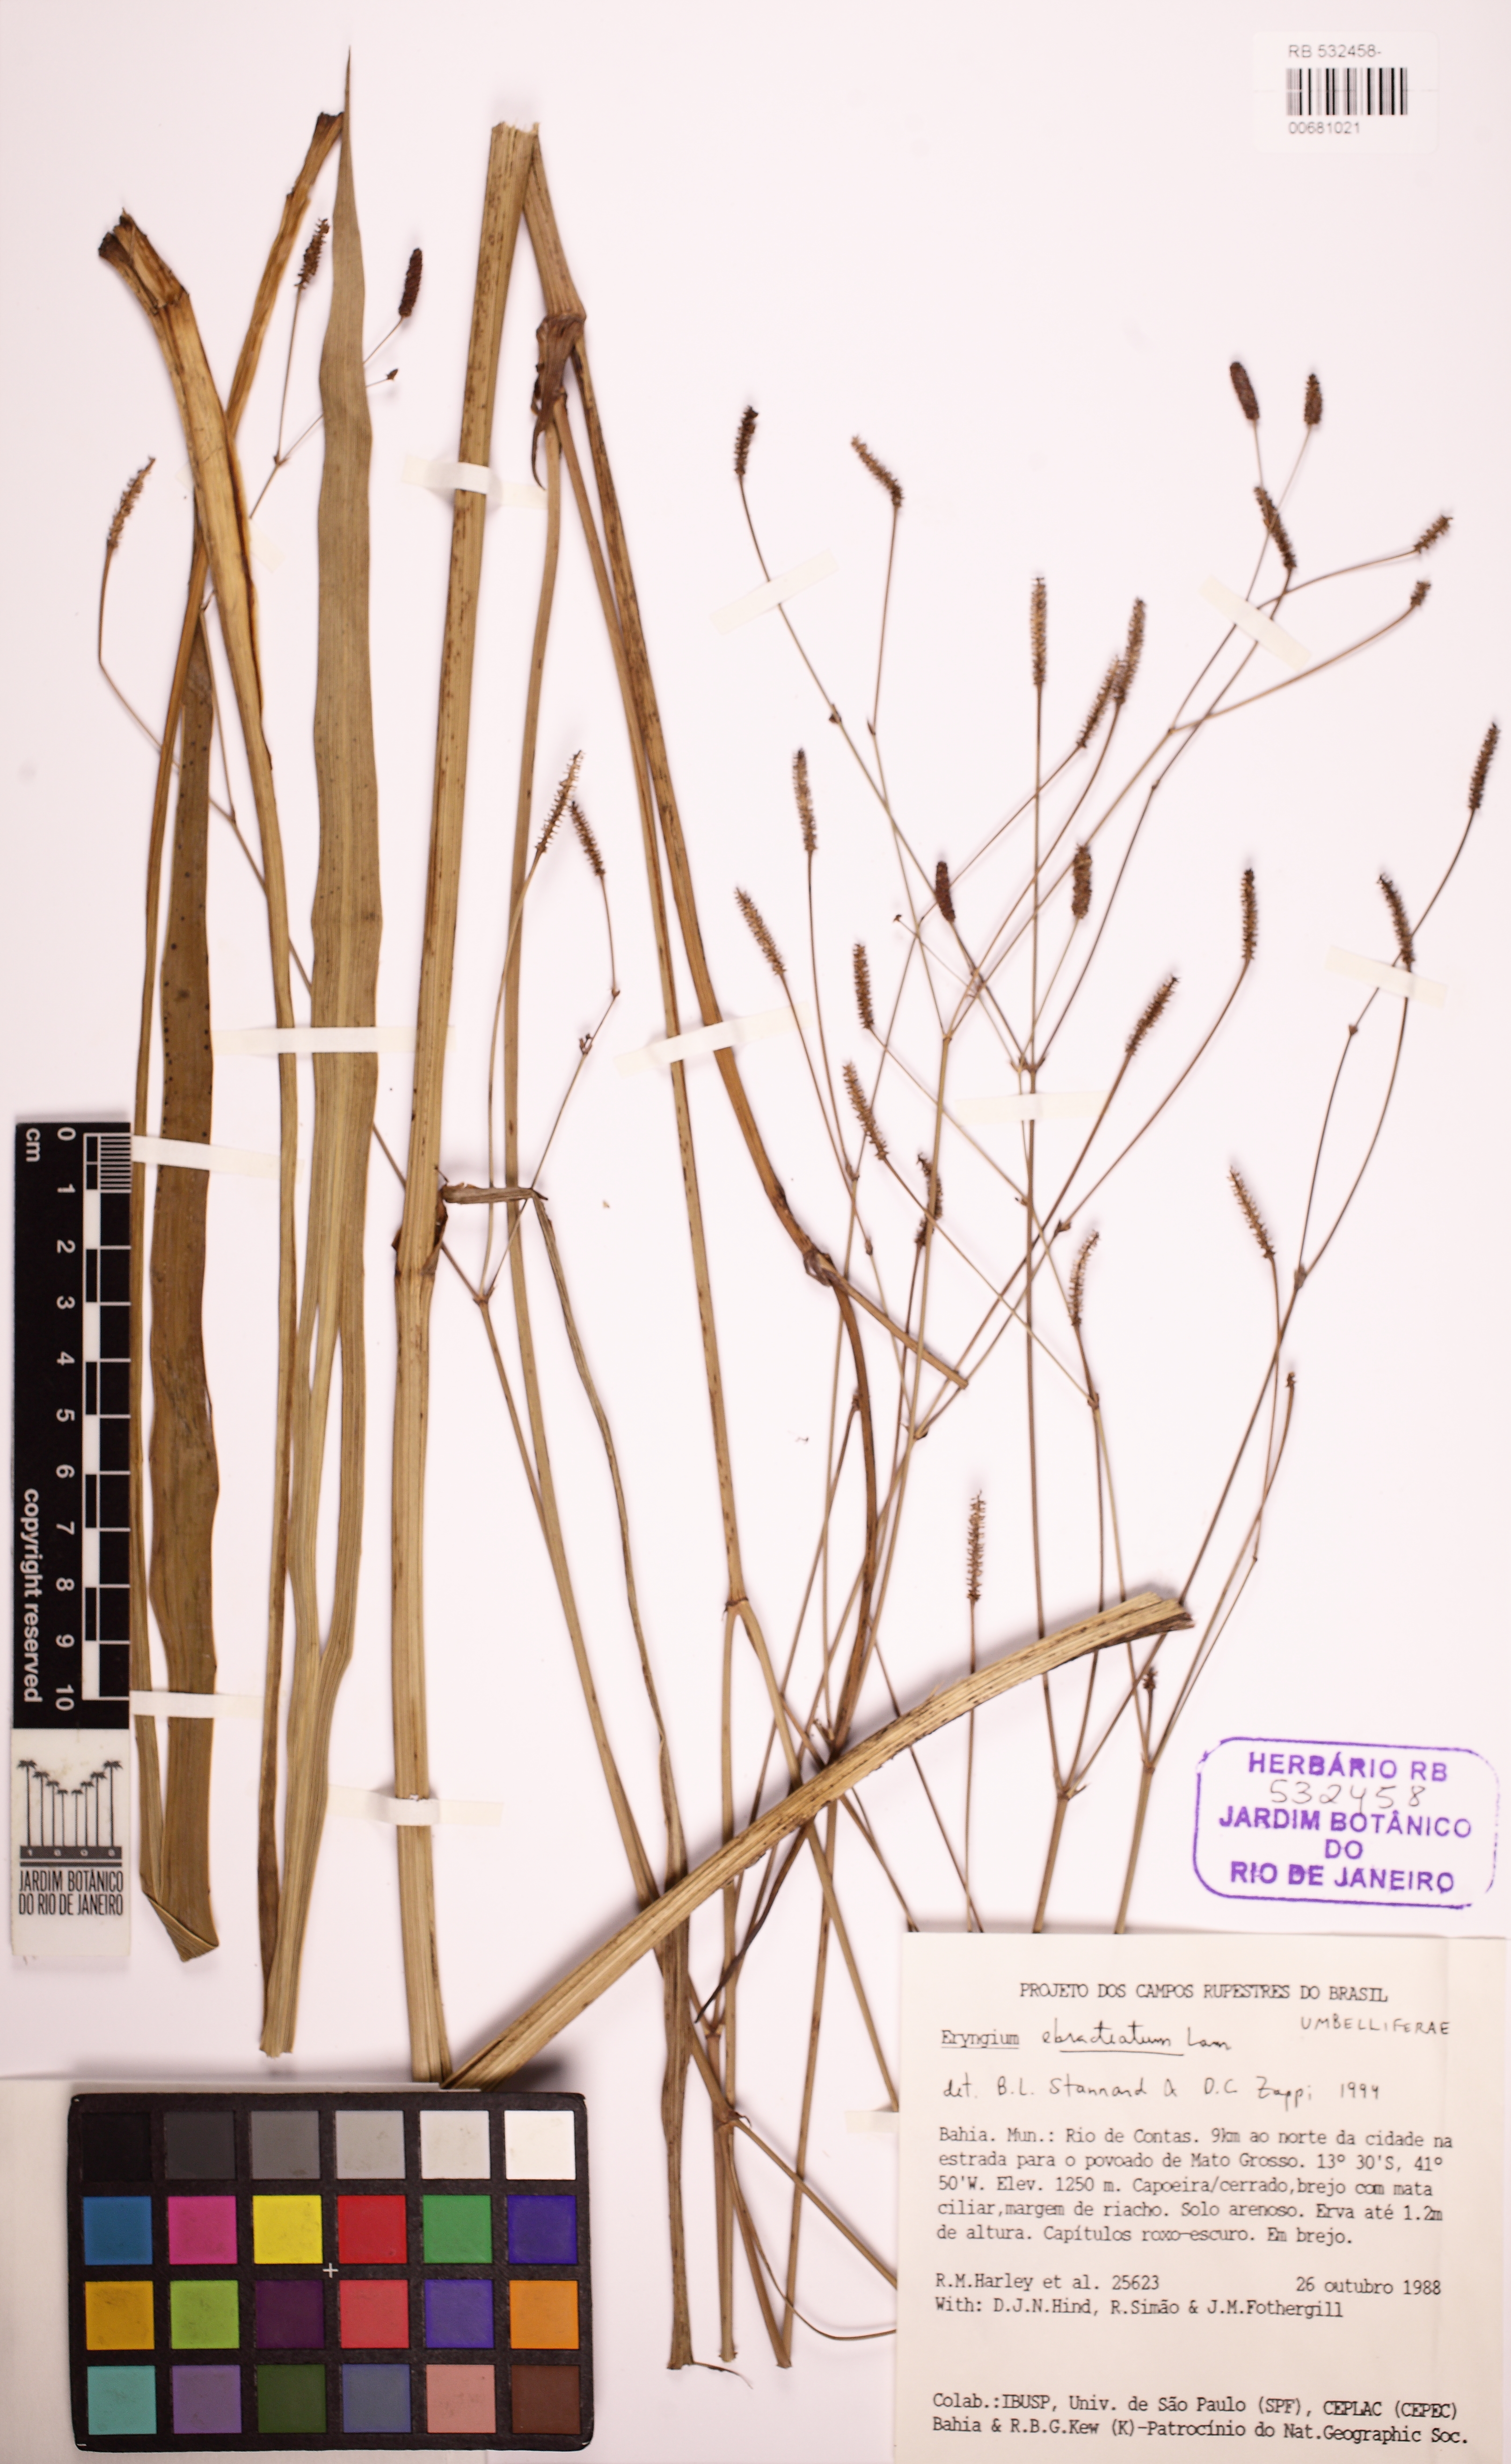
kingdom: Plantae
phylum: Tracheophyta
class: Magnoliopsida
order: Apiales
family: Apiaceae
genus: Eryngium
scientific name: Eryngium ebracteatum
